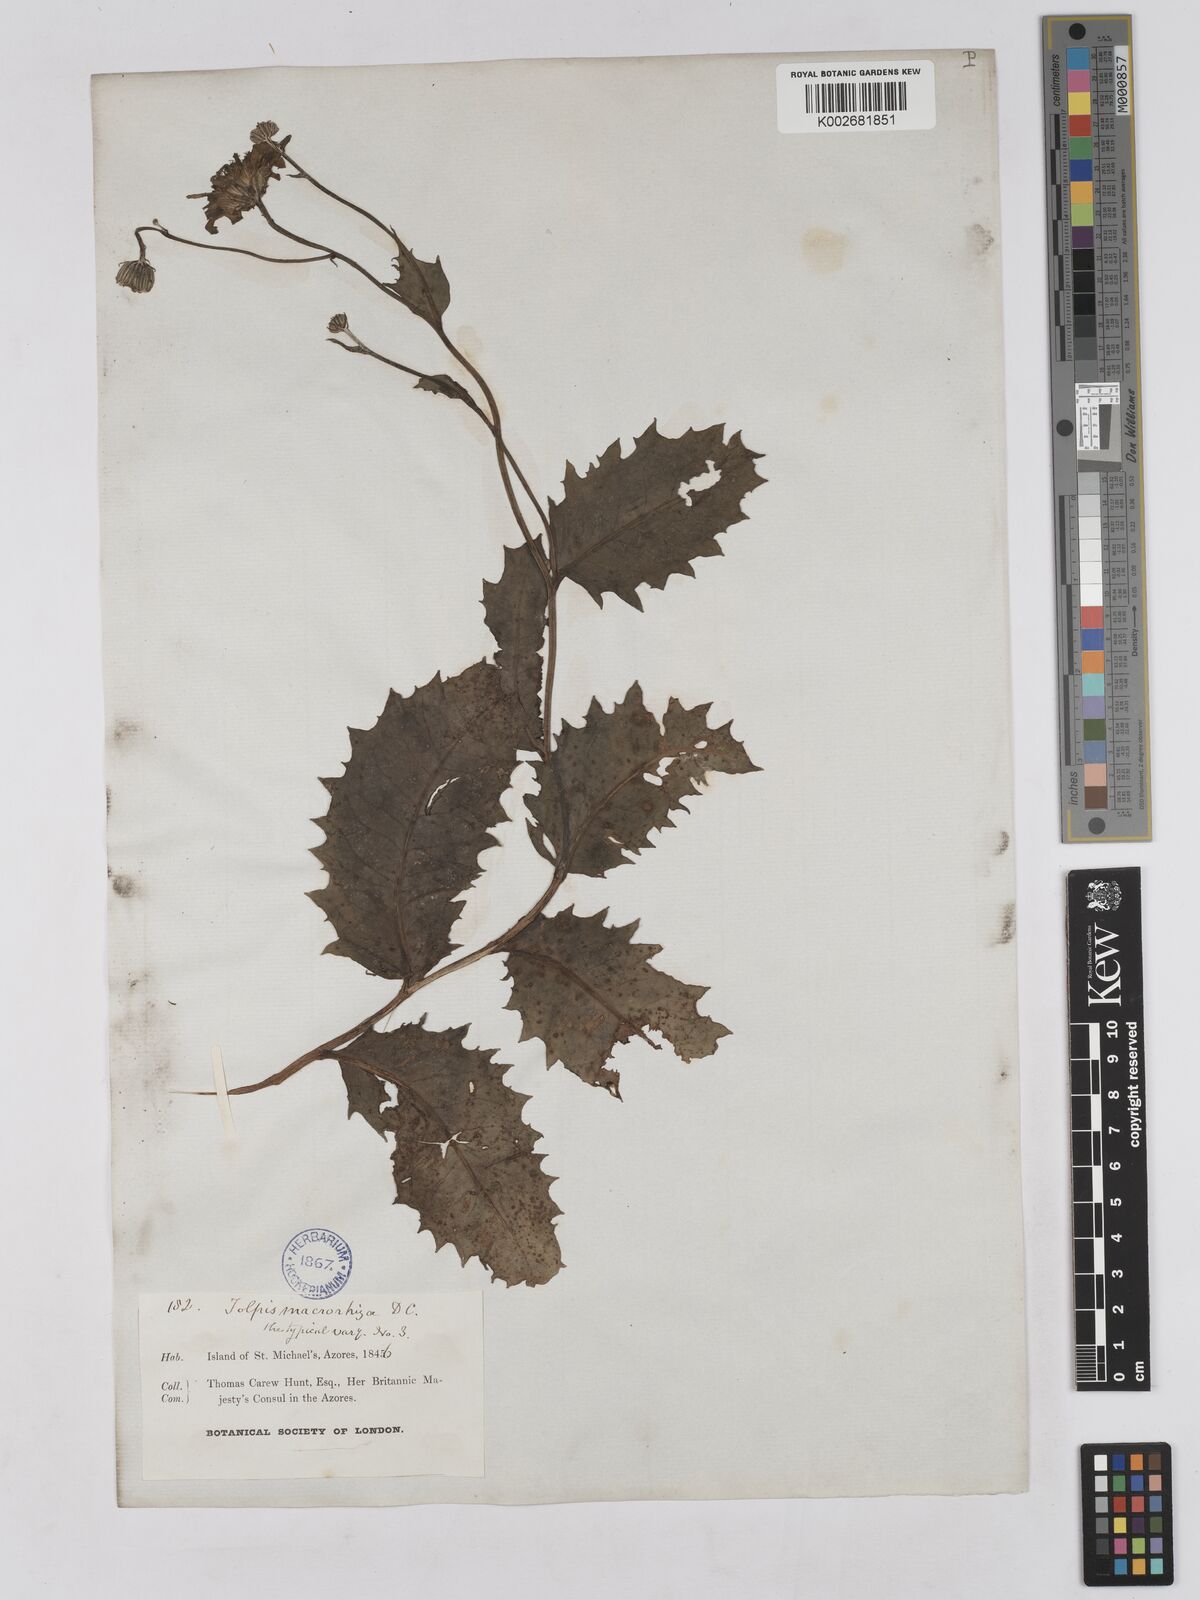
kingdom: Plantae
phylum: Tracheophyta
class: Magnoliopsida
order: Asterales
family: Asteraceae
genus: Tolpis
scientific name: Tolpis nobilis
